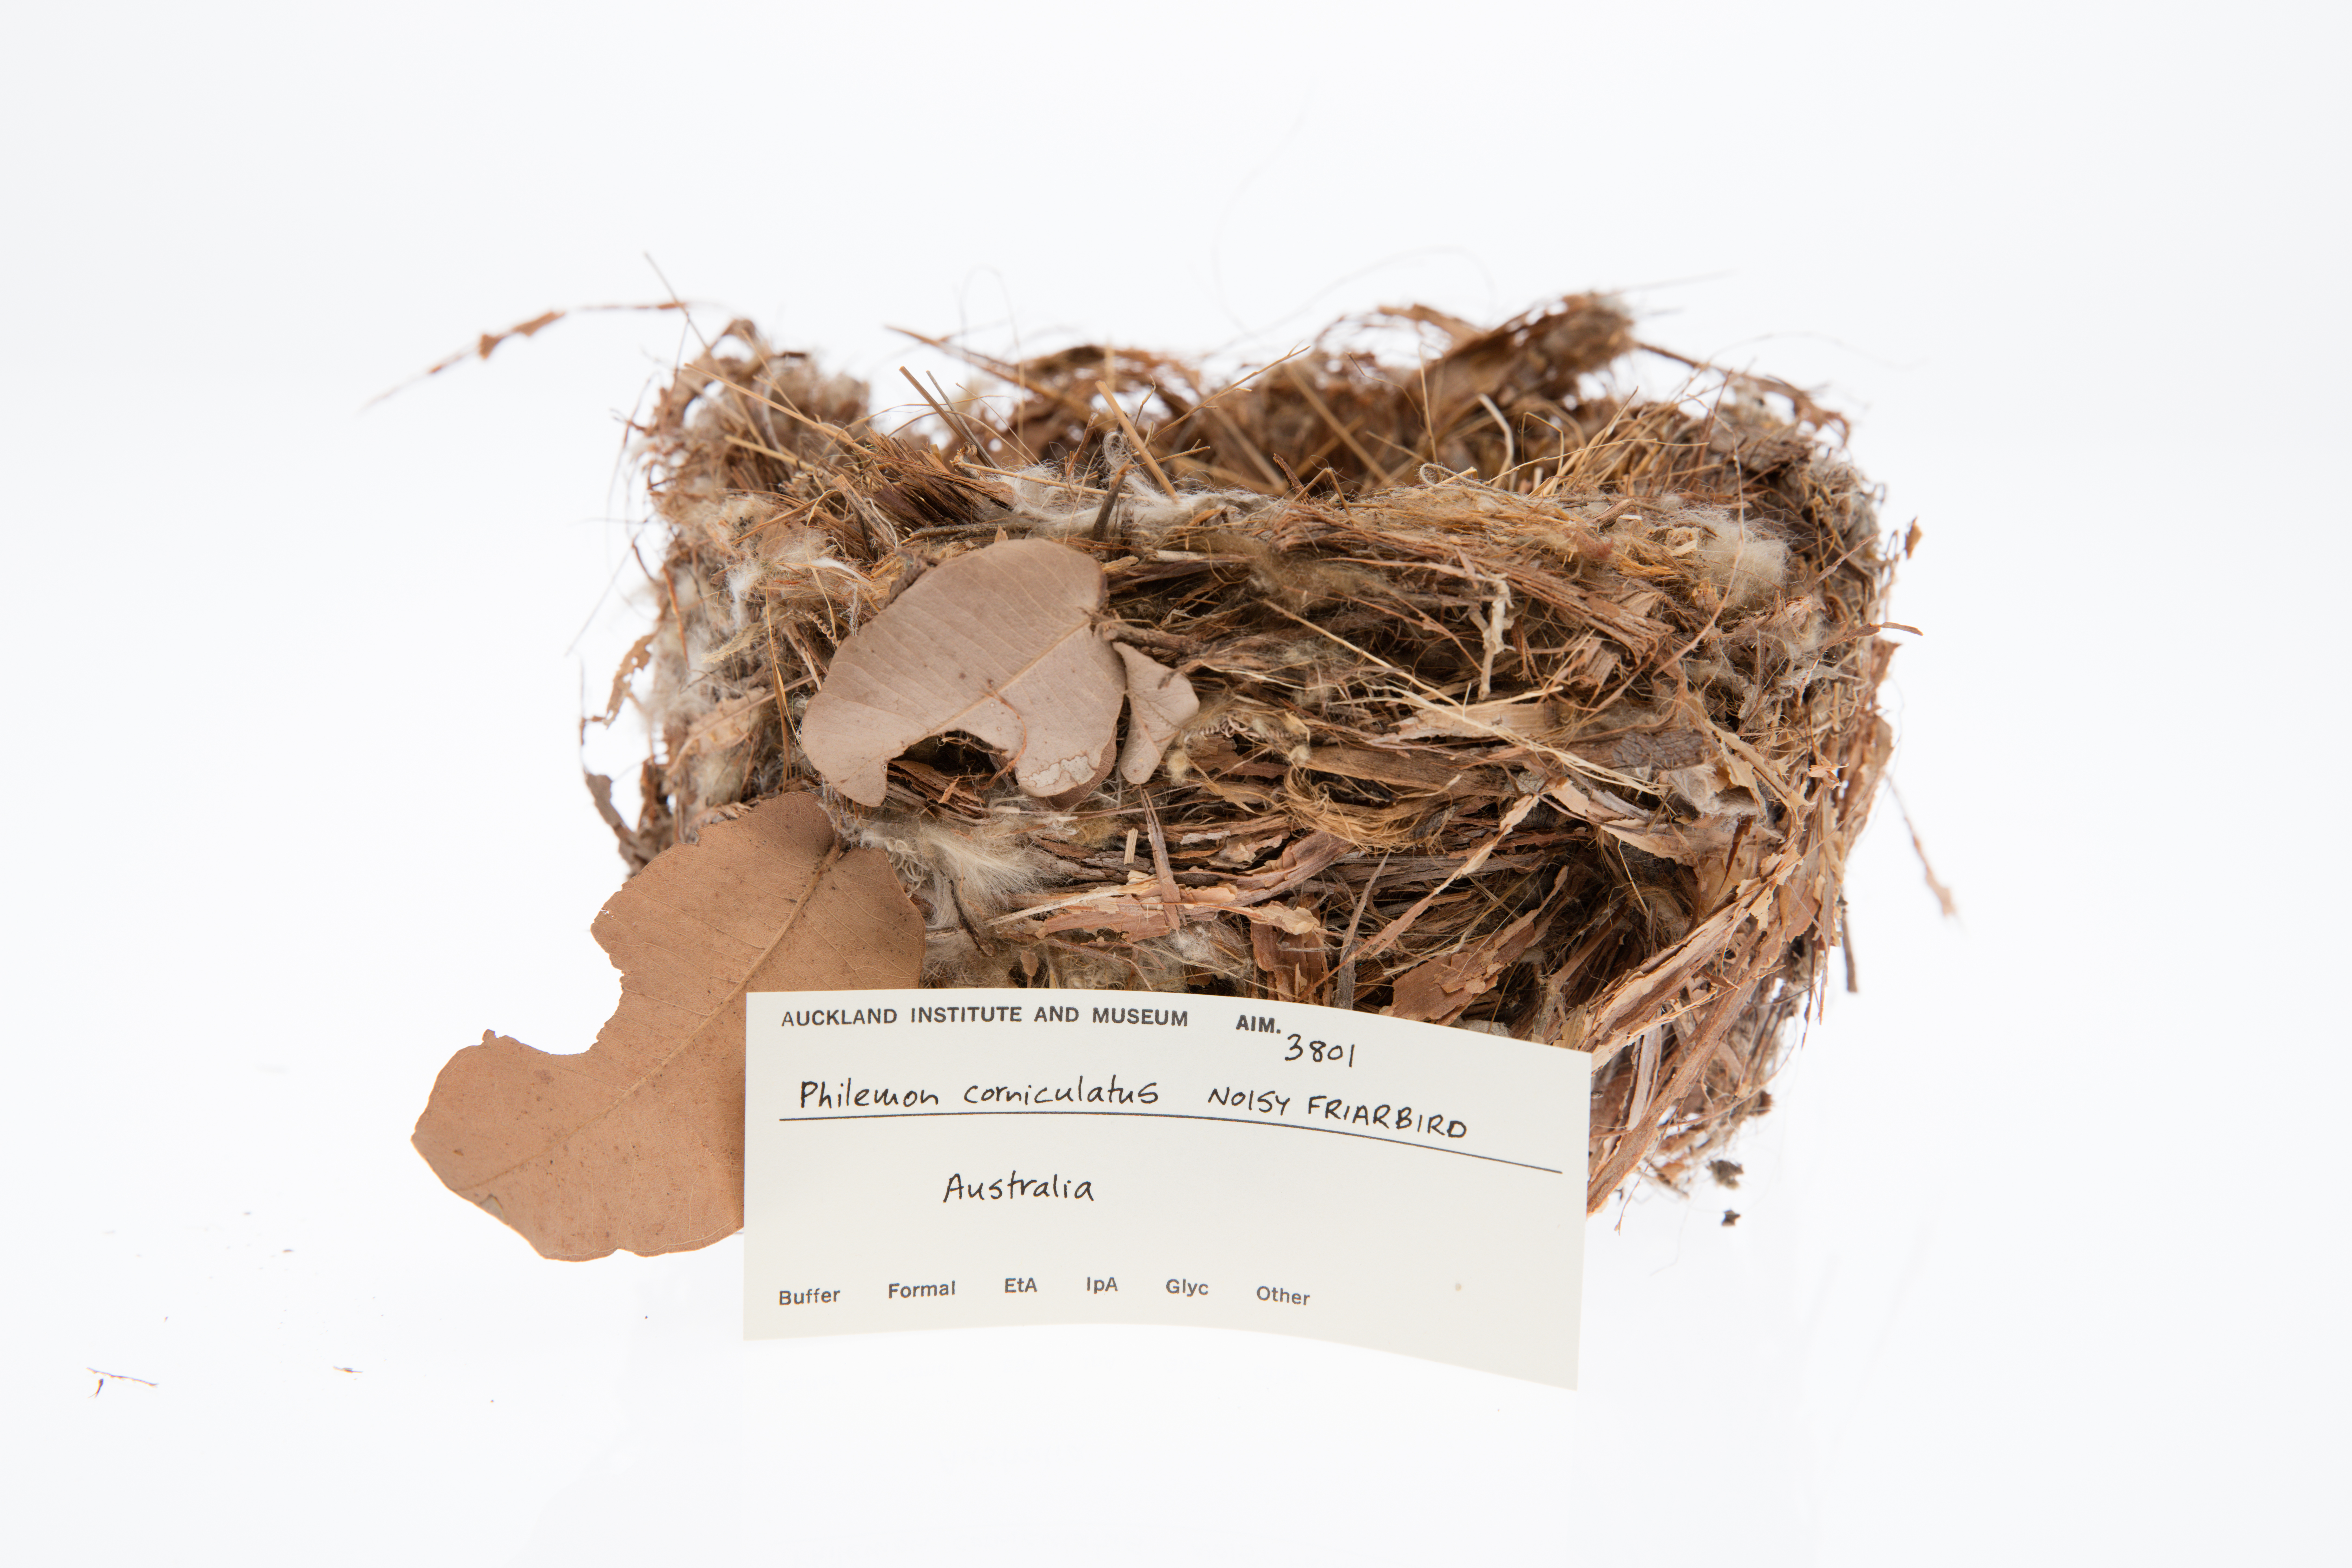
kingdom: Animalia
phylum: Chordata
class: Aves
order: Passeriformes
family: Meliphagidae
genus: Philemon
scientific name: Philemon corniculatus
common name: Noisy friarbird
